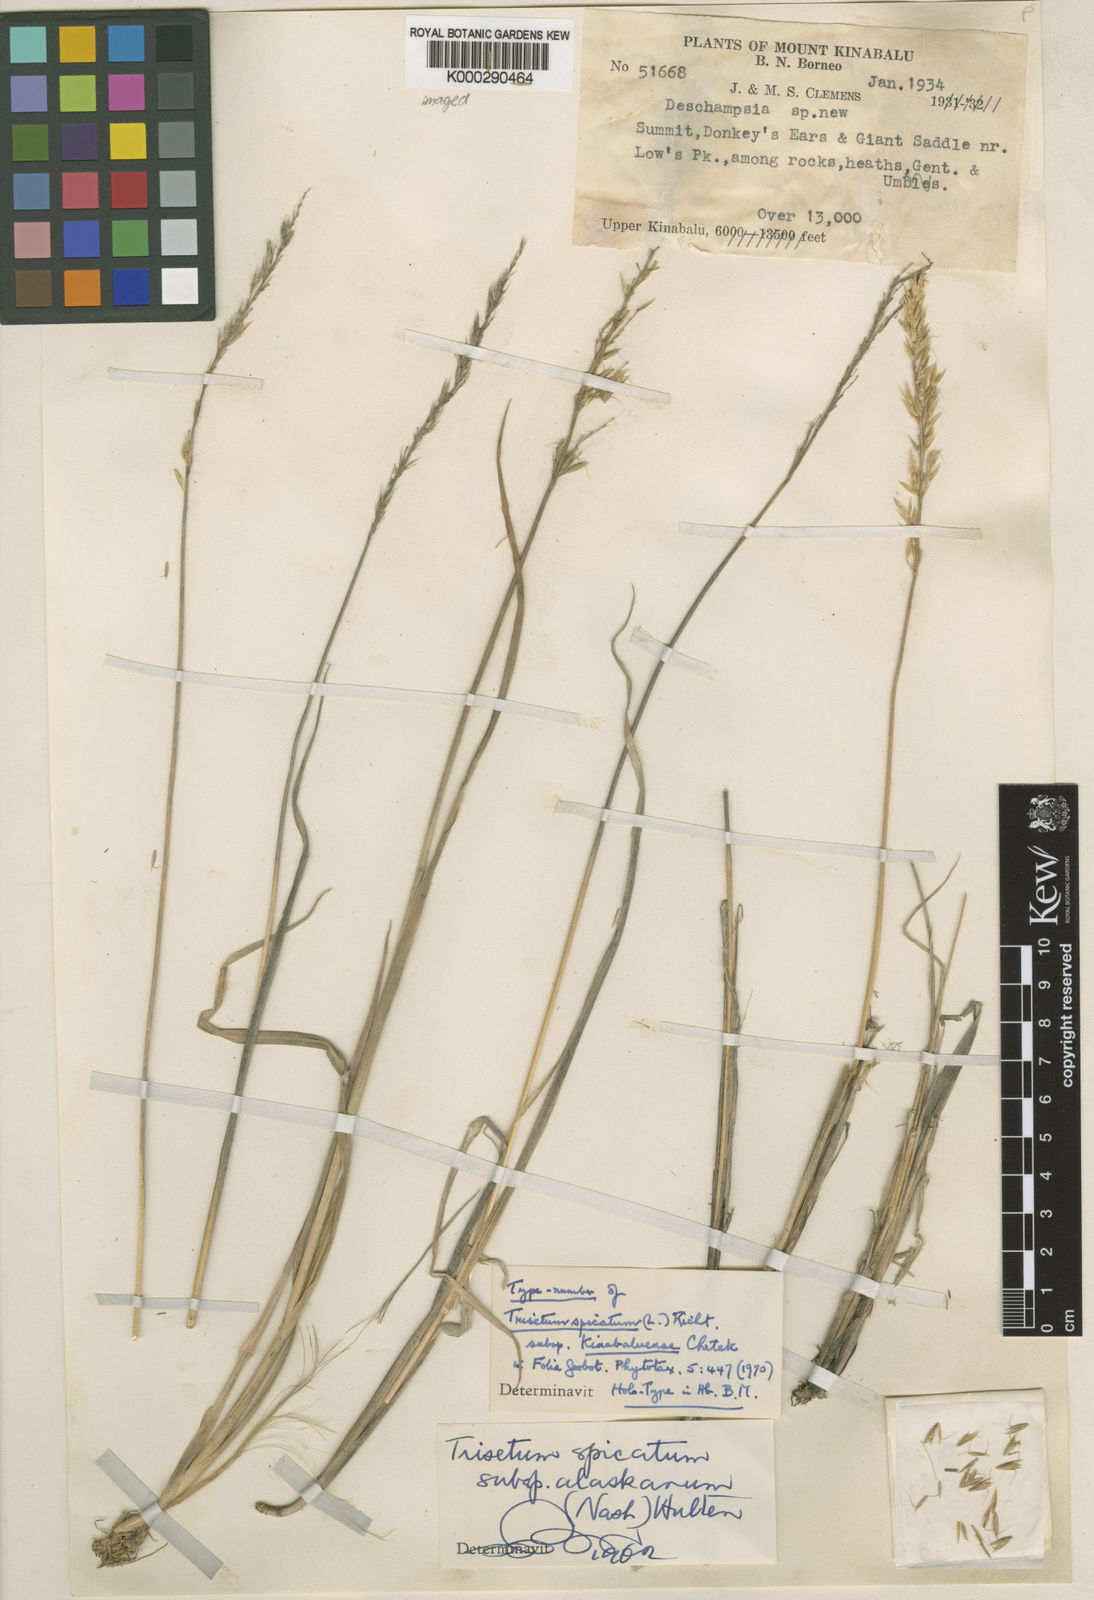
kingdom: Plantae
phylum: Tracheophyta
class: Liliopsida
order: Poales
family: Poaceae
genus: Koeleria
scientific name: Koeleria spicata
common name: Mountain trisetum
